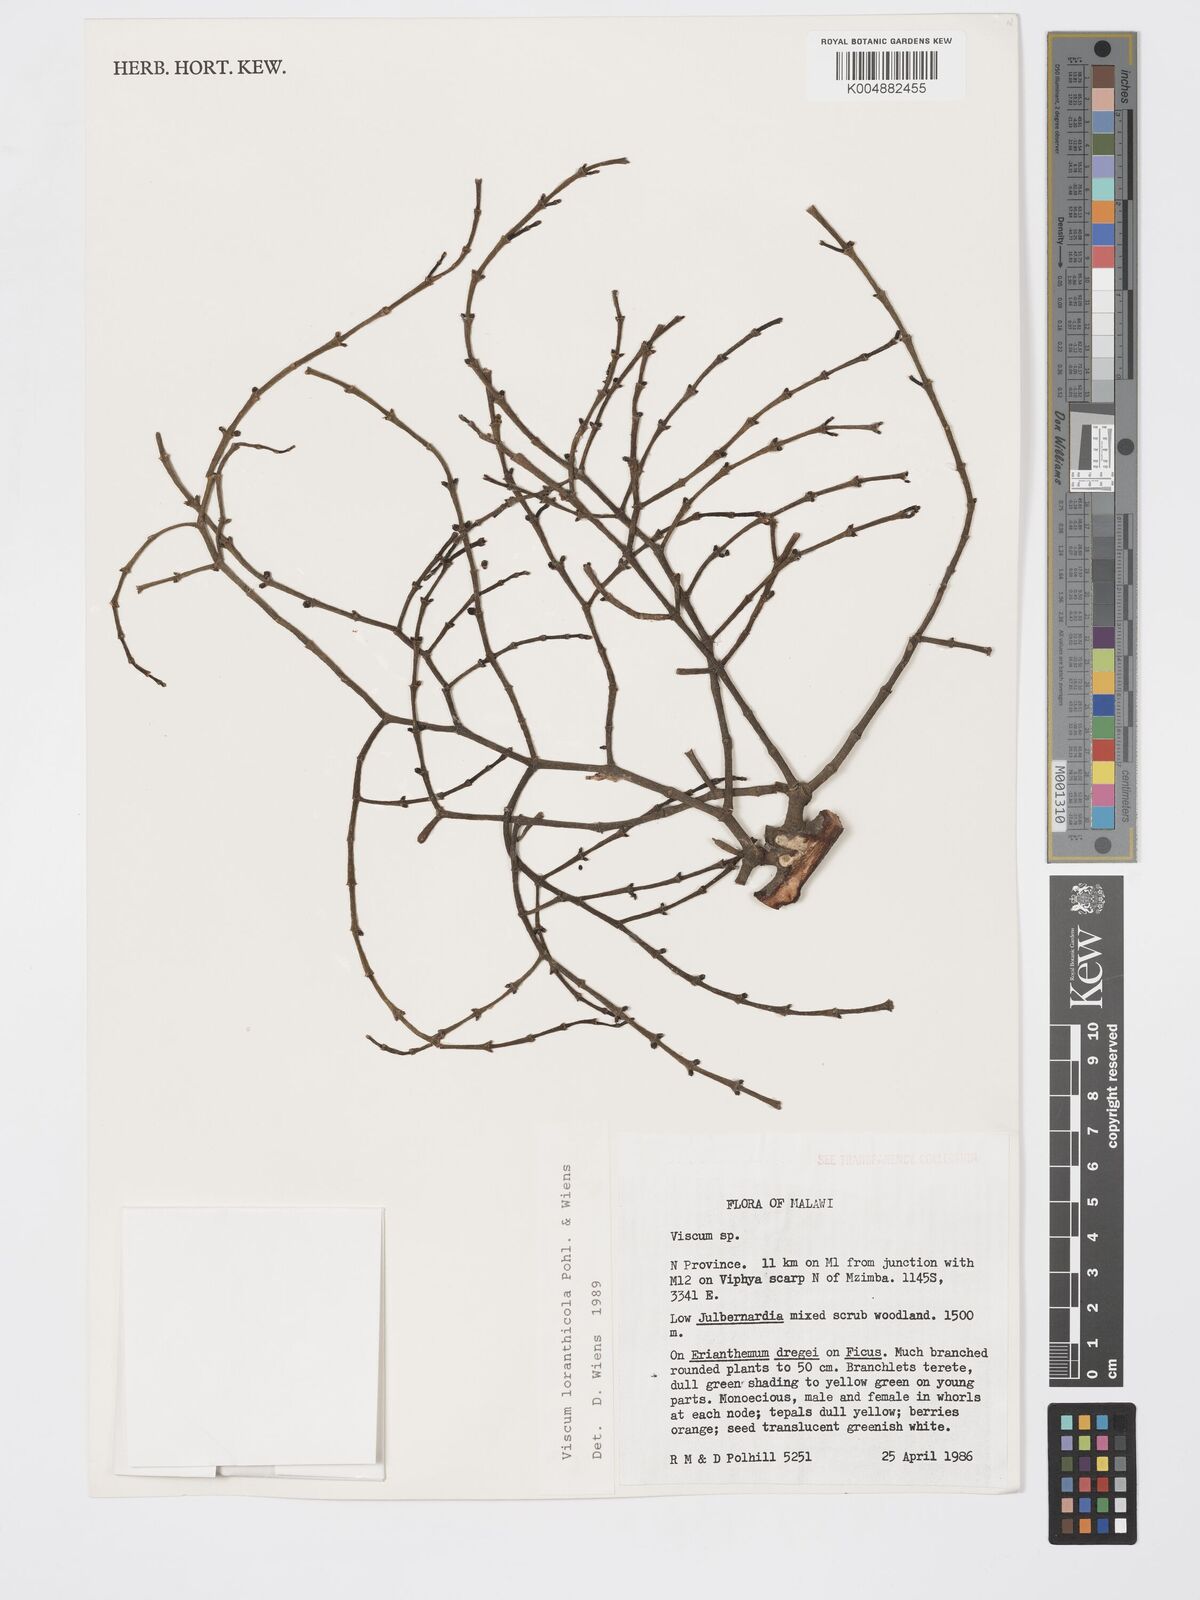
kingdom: Plantae
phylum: Tracheophyta
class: Magnoliopsida
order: Santalales
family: Viscaceae
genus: Viscum
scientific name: Viscum loranthicola
